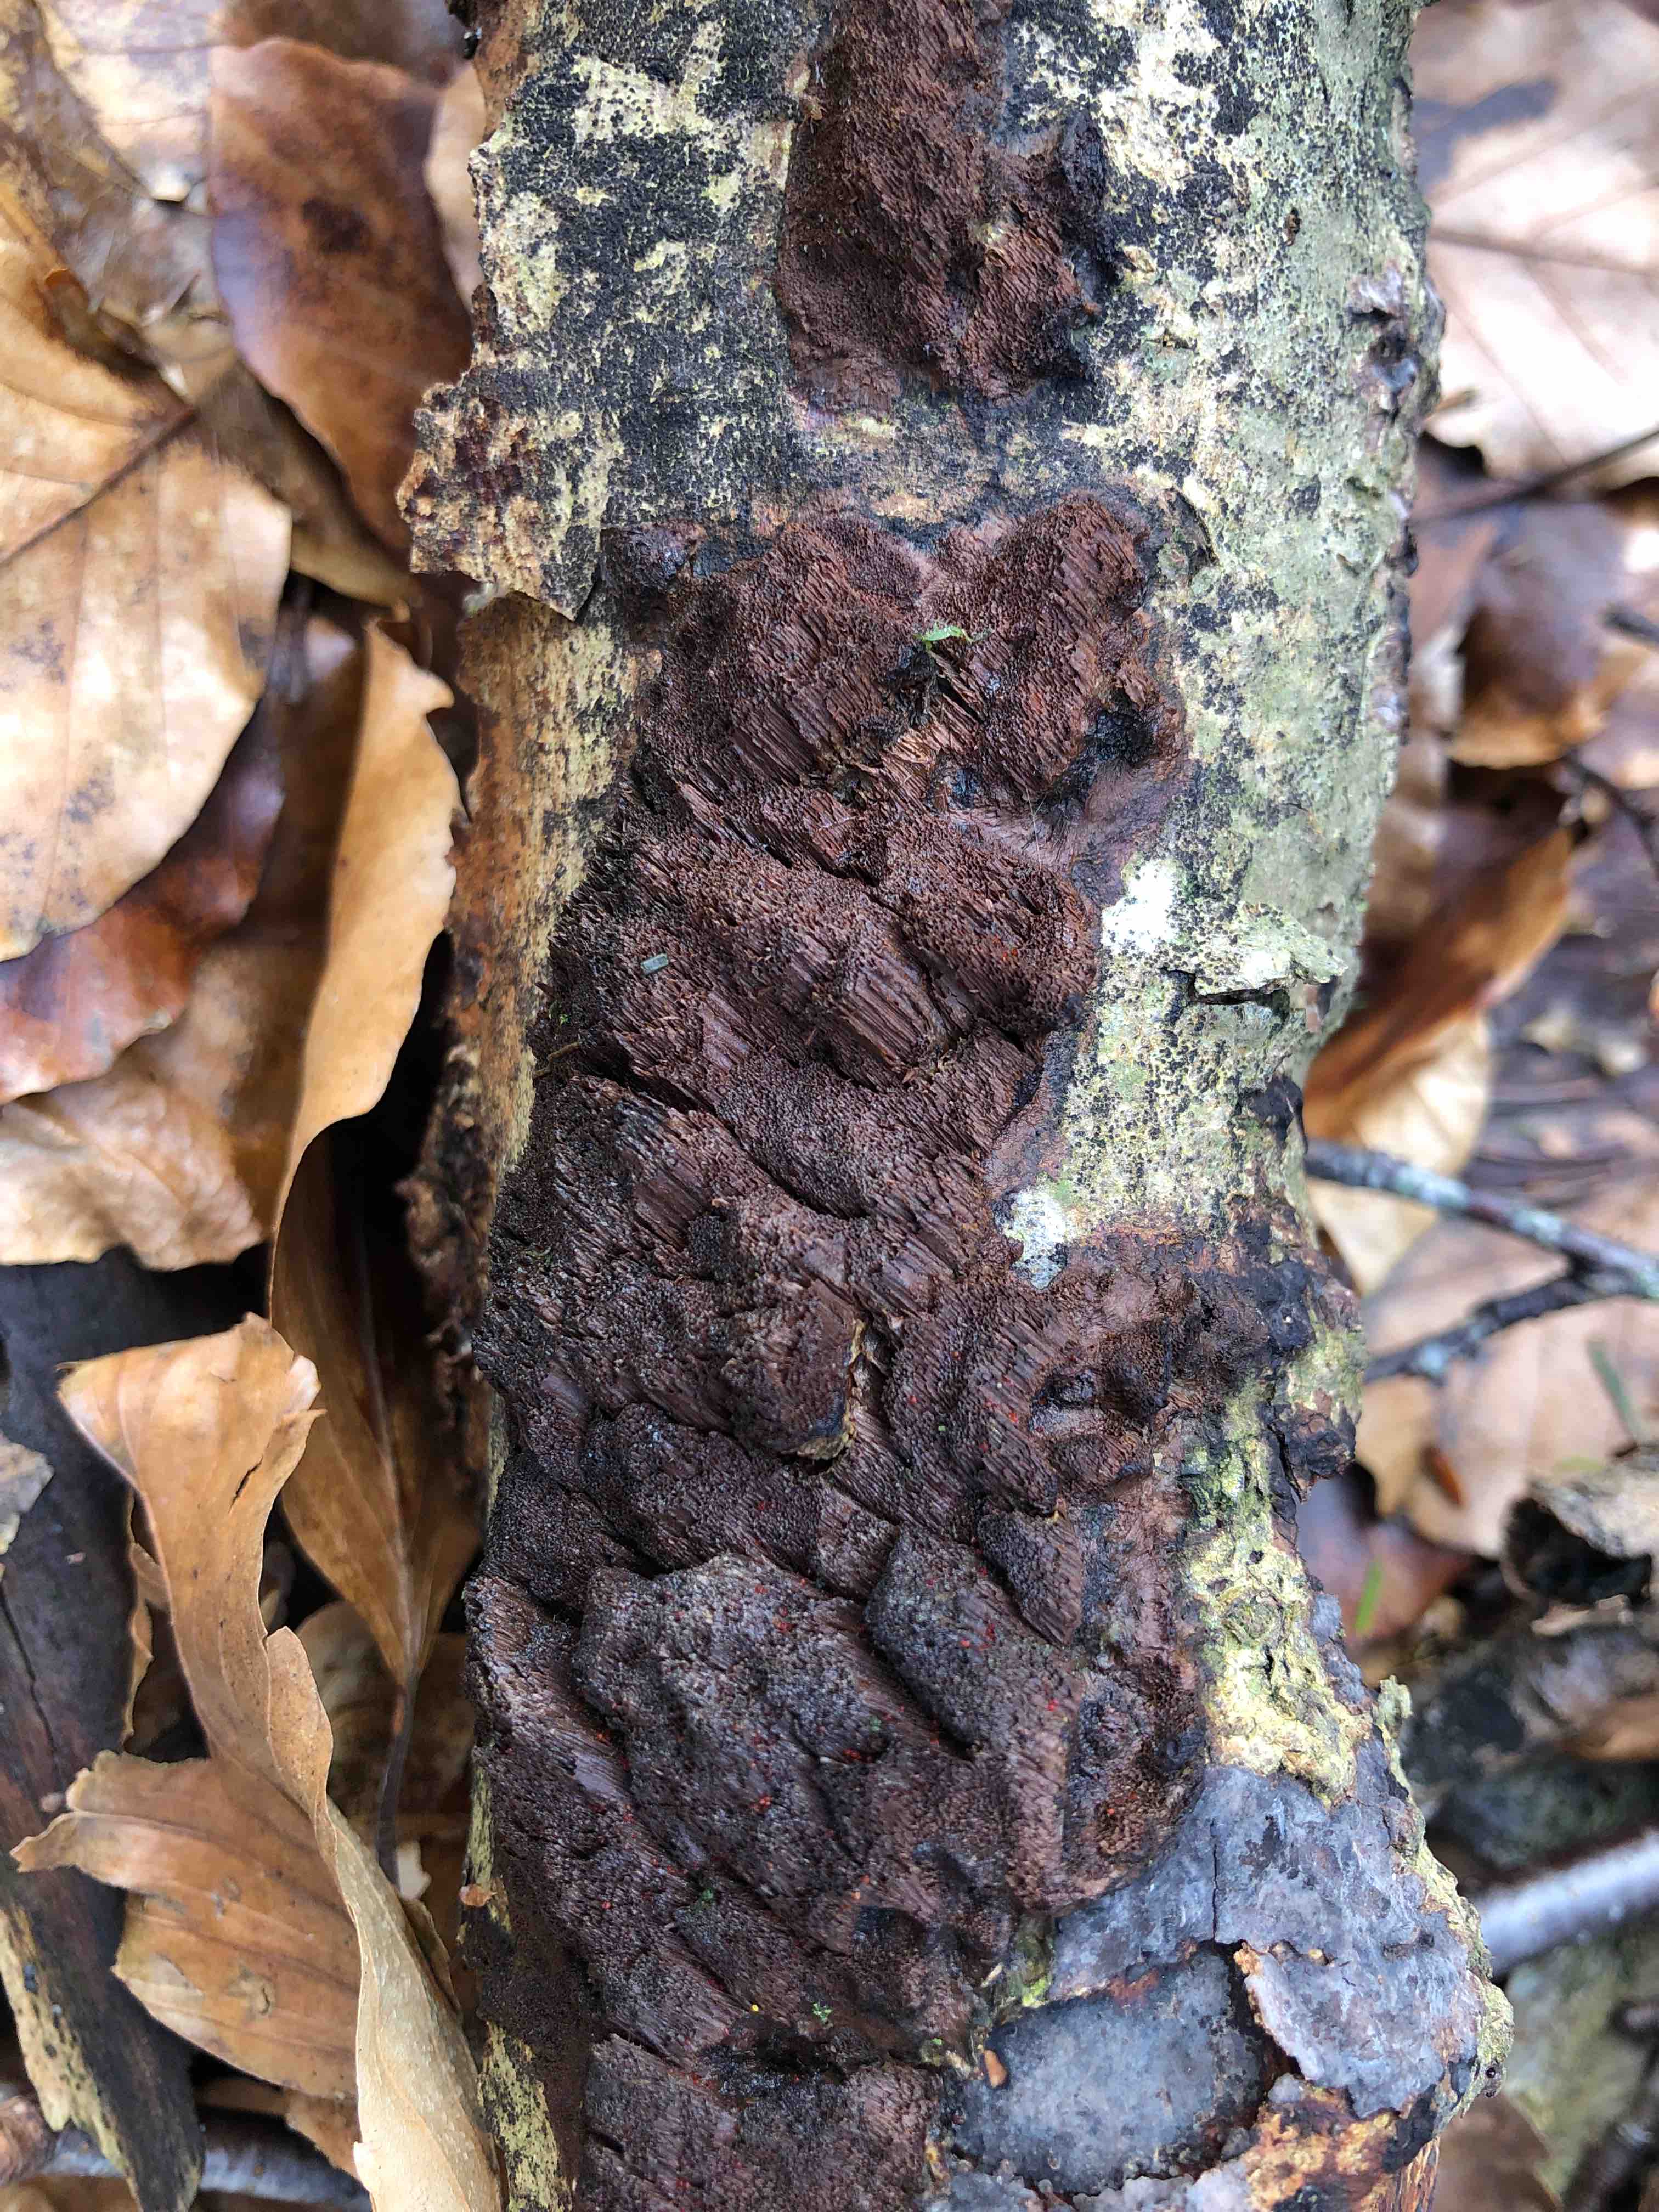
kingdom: Fungi
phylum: Basidiomycota
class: Agaricomycetes
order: Hymenochaetales
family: Hymenochaetaceae
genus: Mensularia
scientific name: Mensularia nodulosa
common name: bøge-spejlporesvamp
